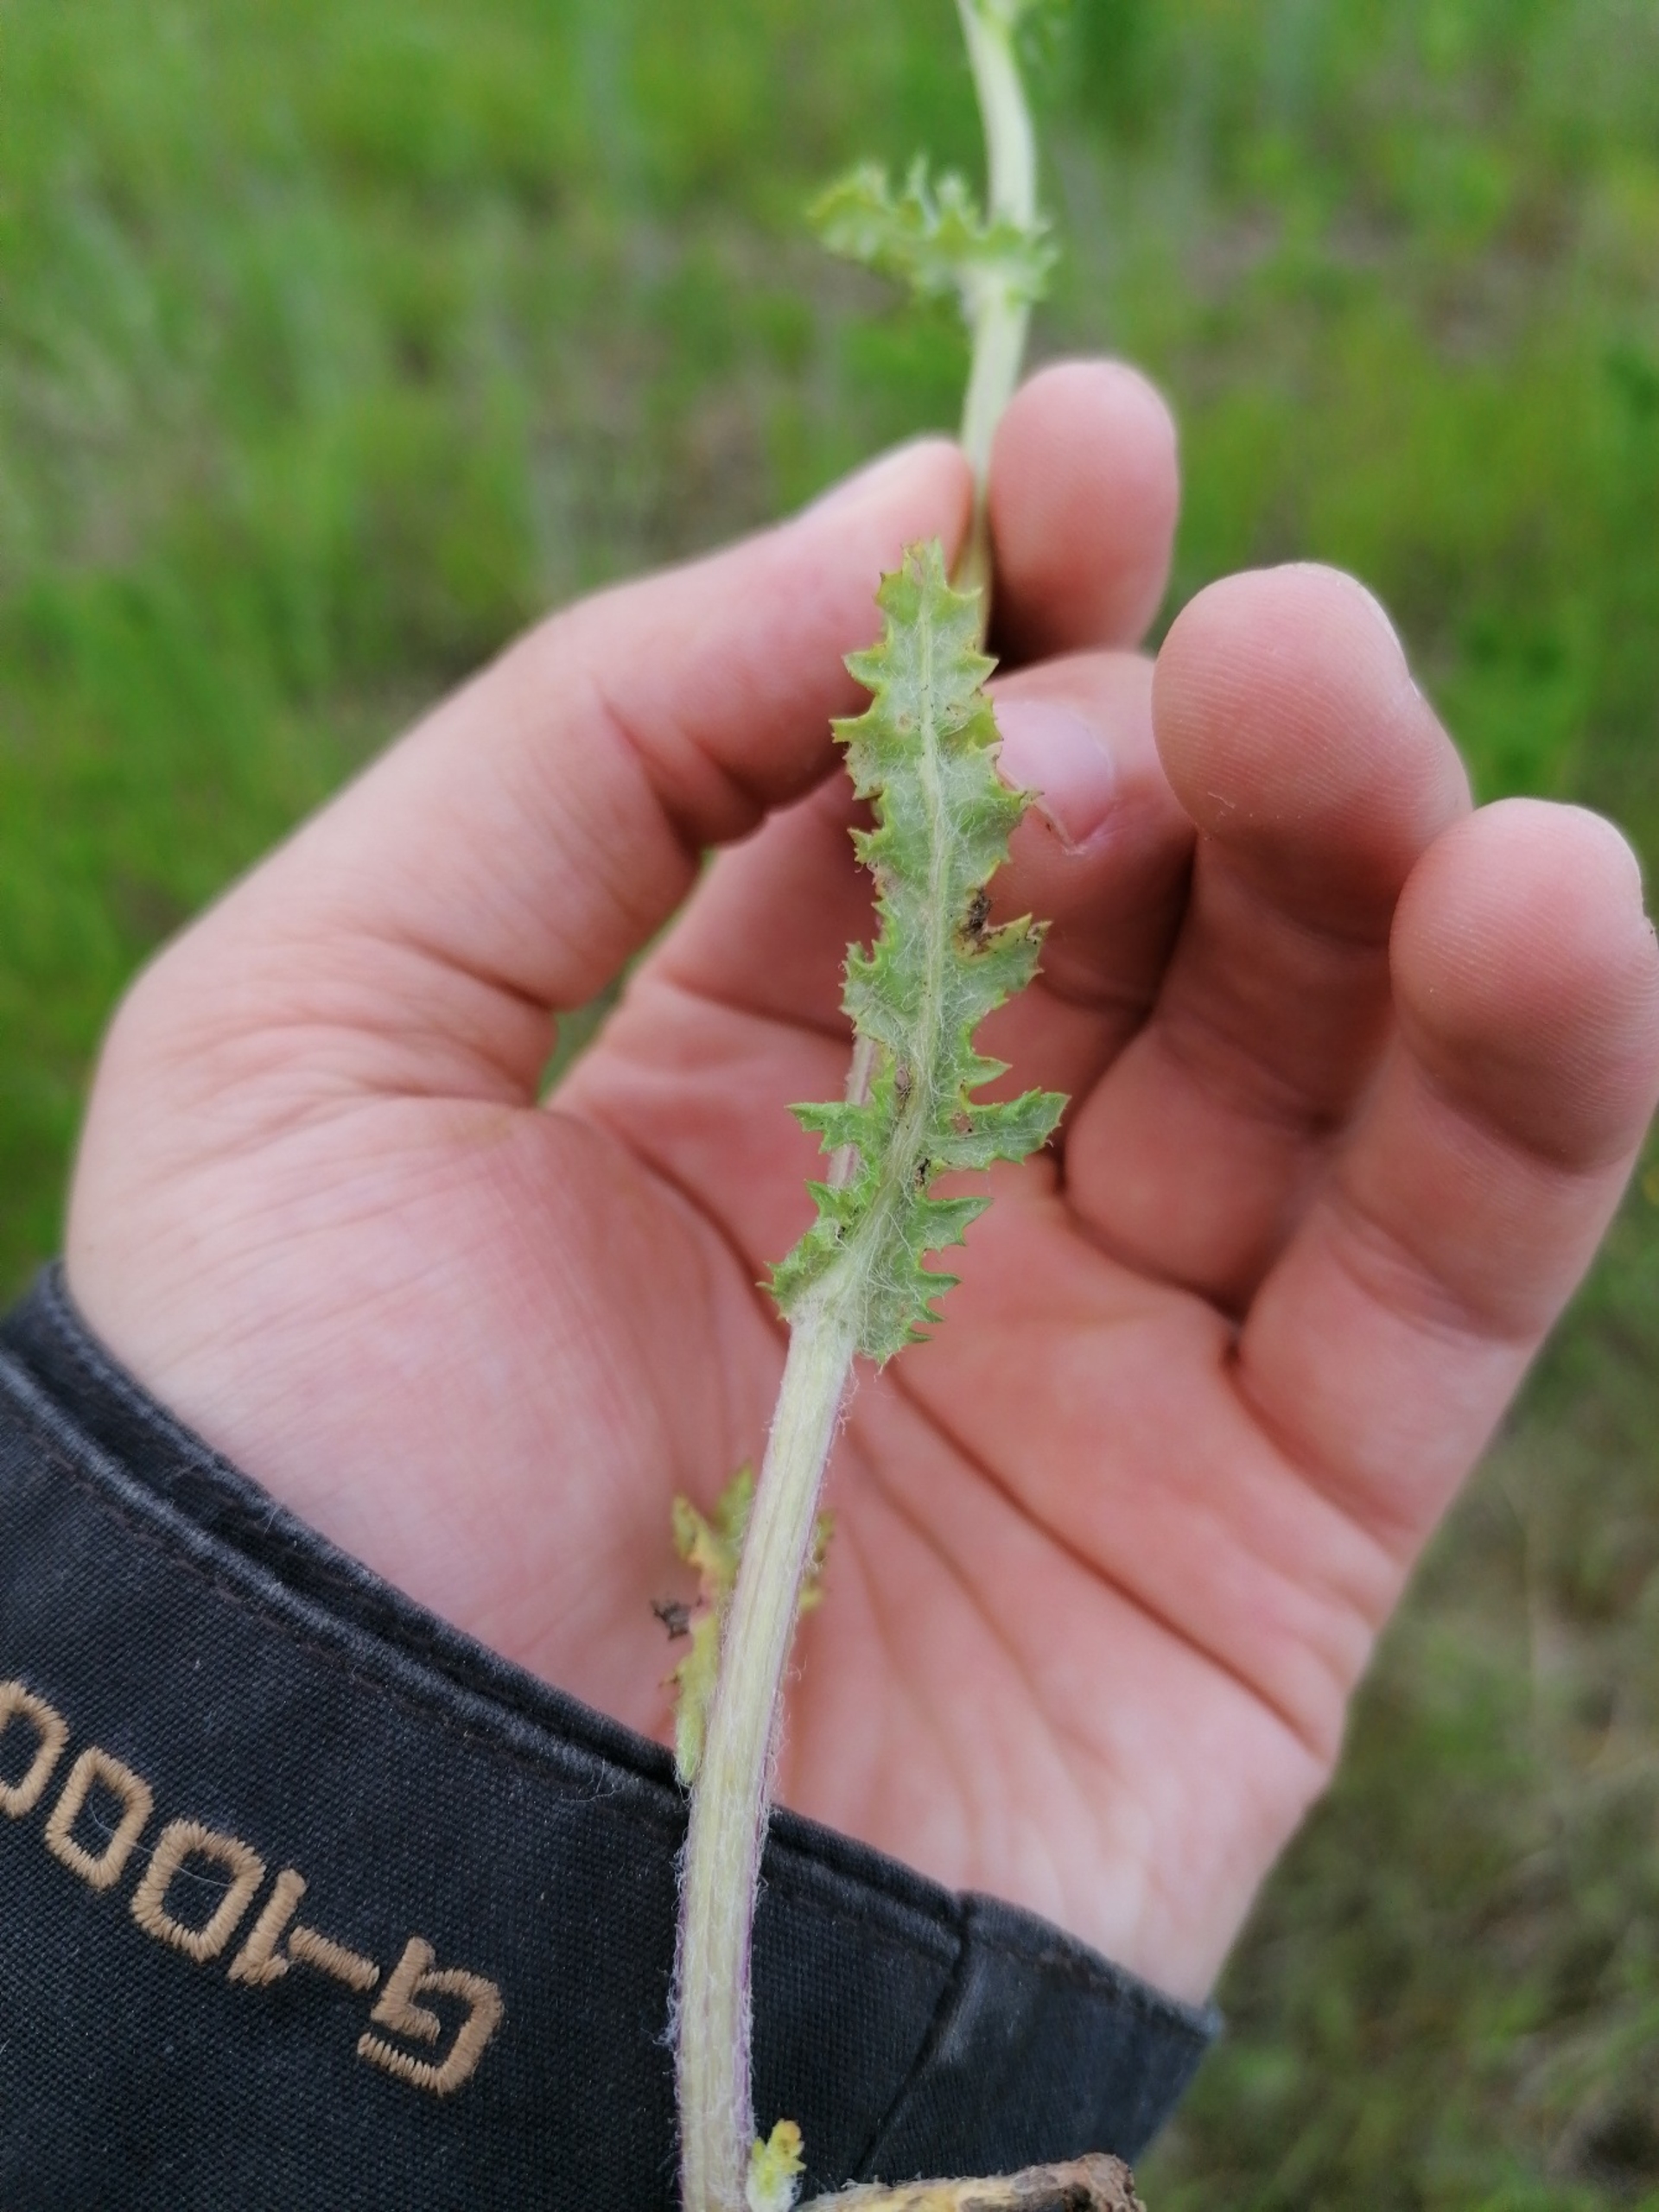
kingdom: Plantae
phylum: Tracheophyta
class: Magnoliopsida
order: Asterales
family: Asteraceae
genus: Senecio
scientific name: Senecio leucanthemifolius
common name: Vår-brandbæger
